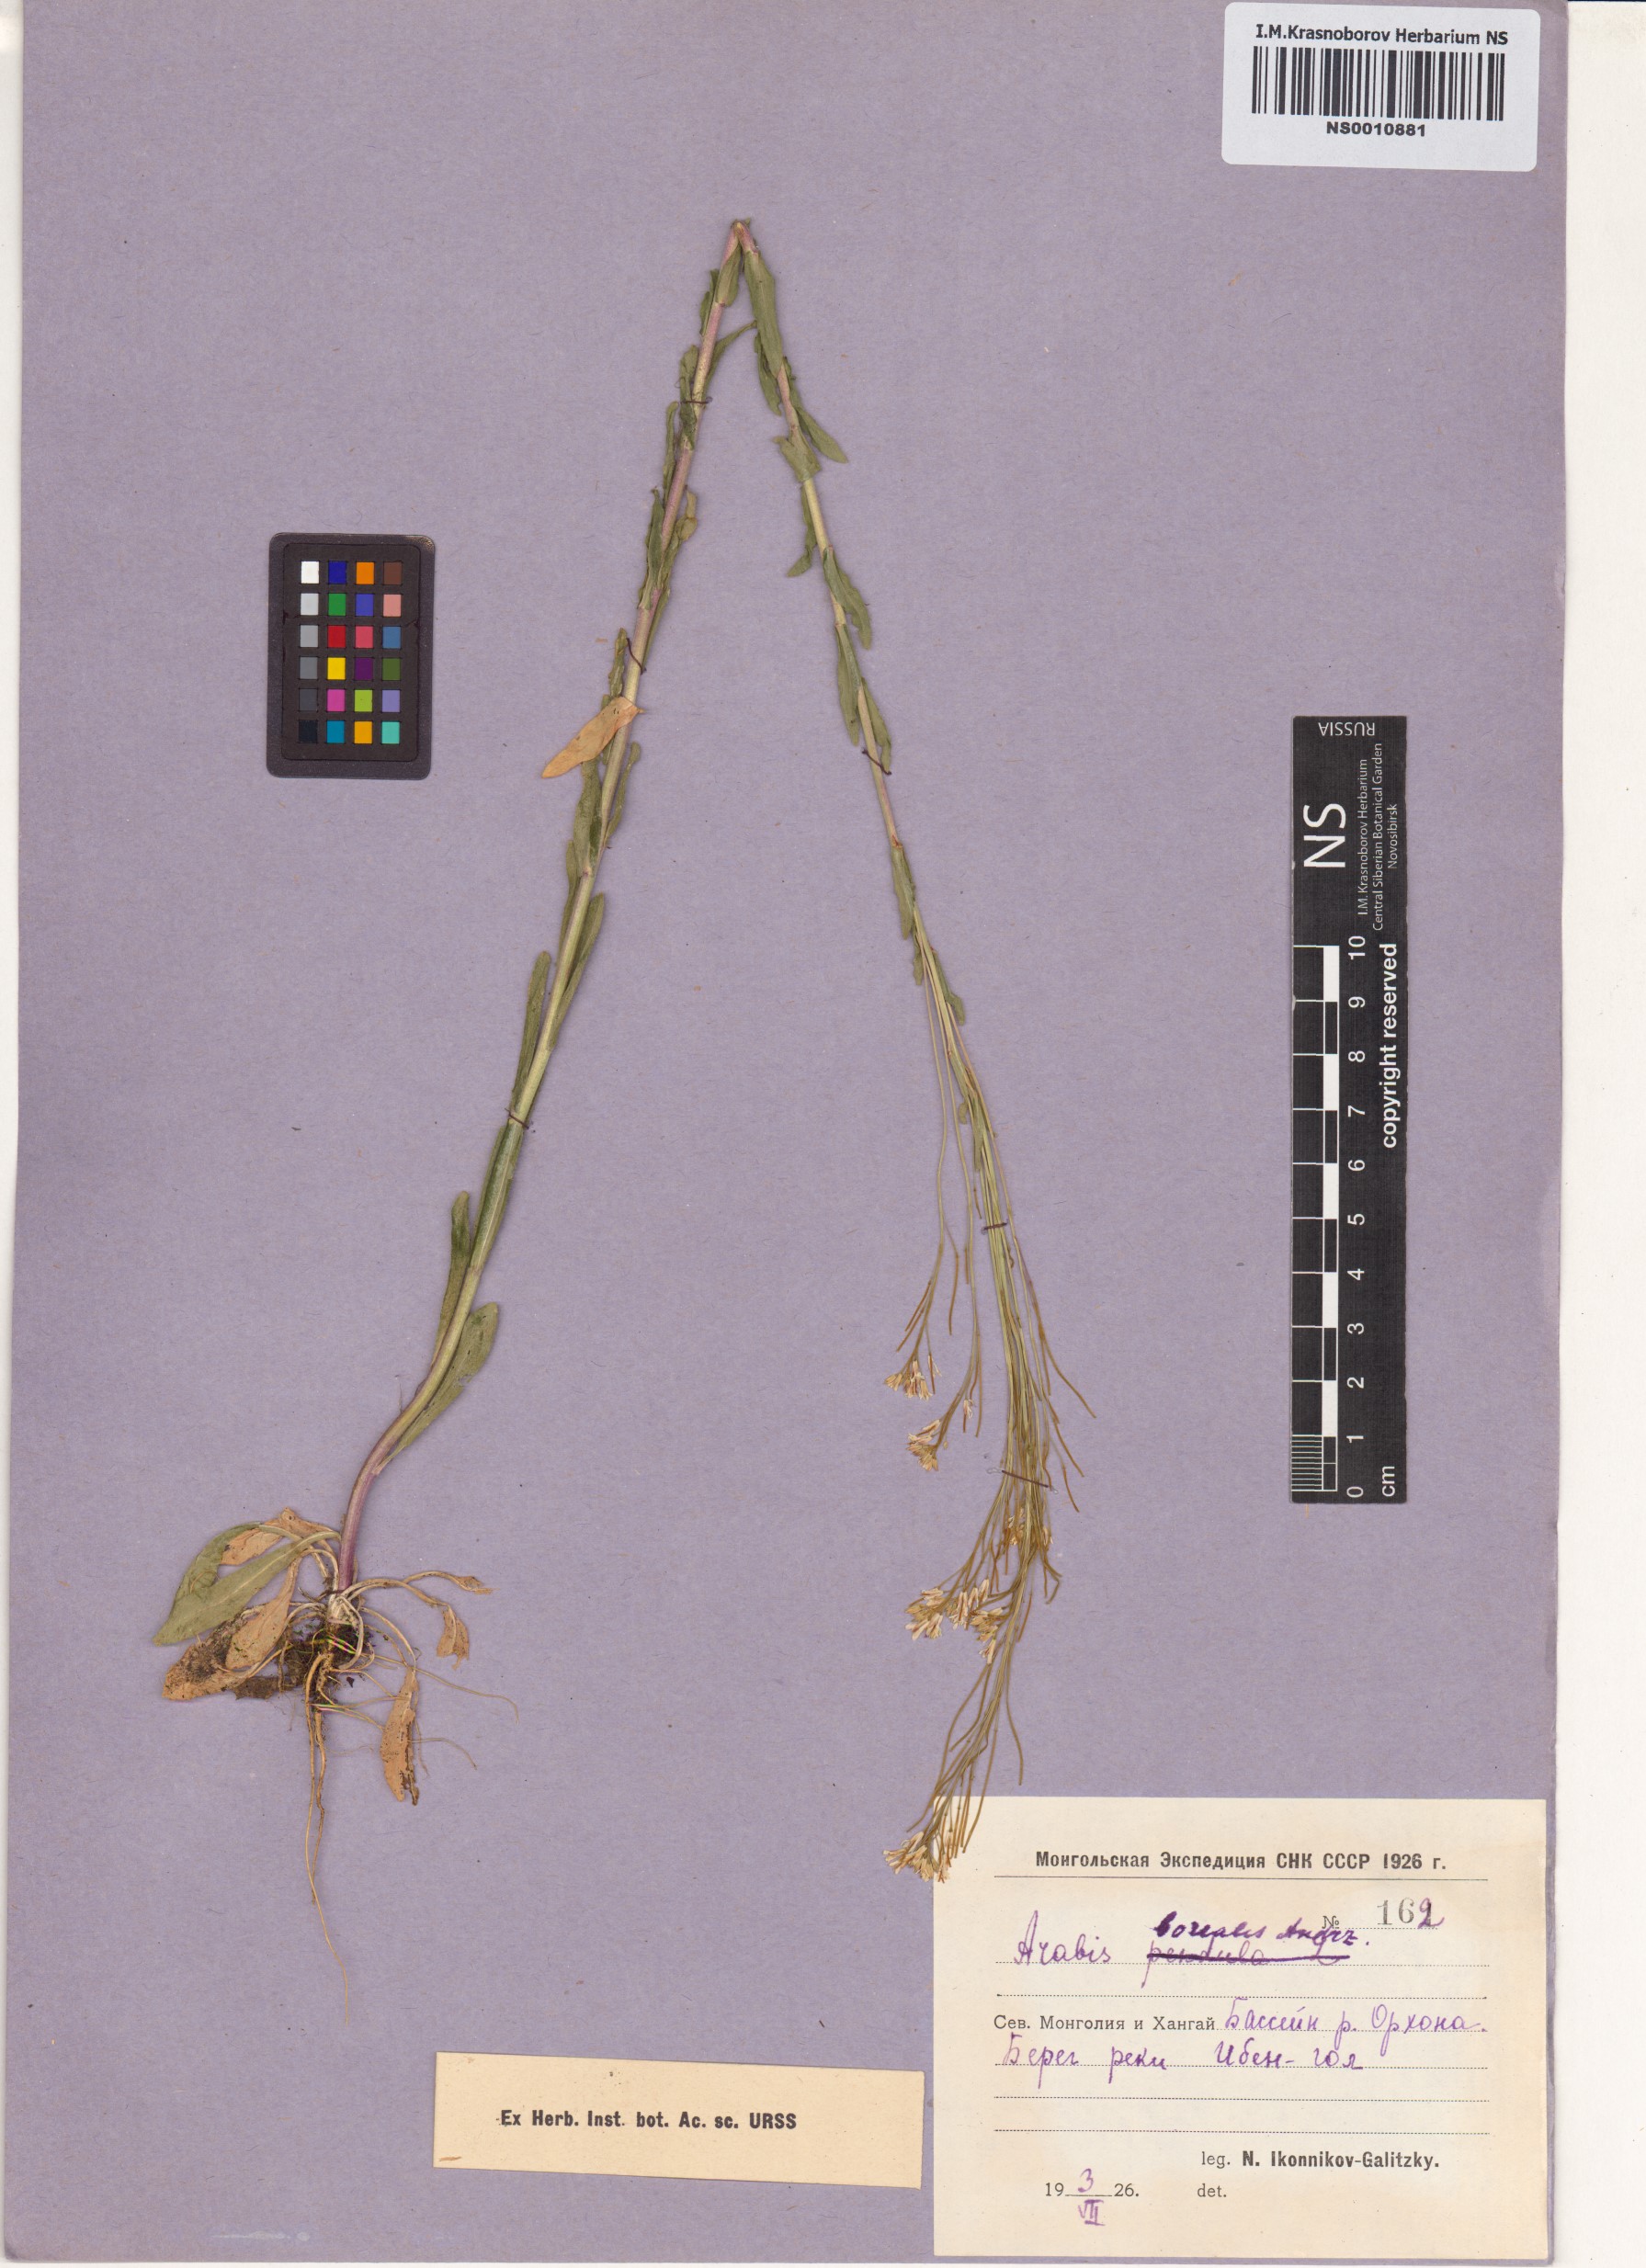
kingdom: Plantae
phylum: Tracheophyta
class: Magnoliopsida
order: Brassicales
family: Brassicaceae
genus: Arabis
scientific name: Arabis borealis
